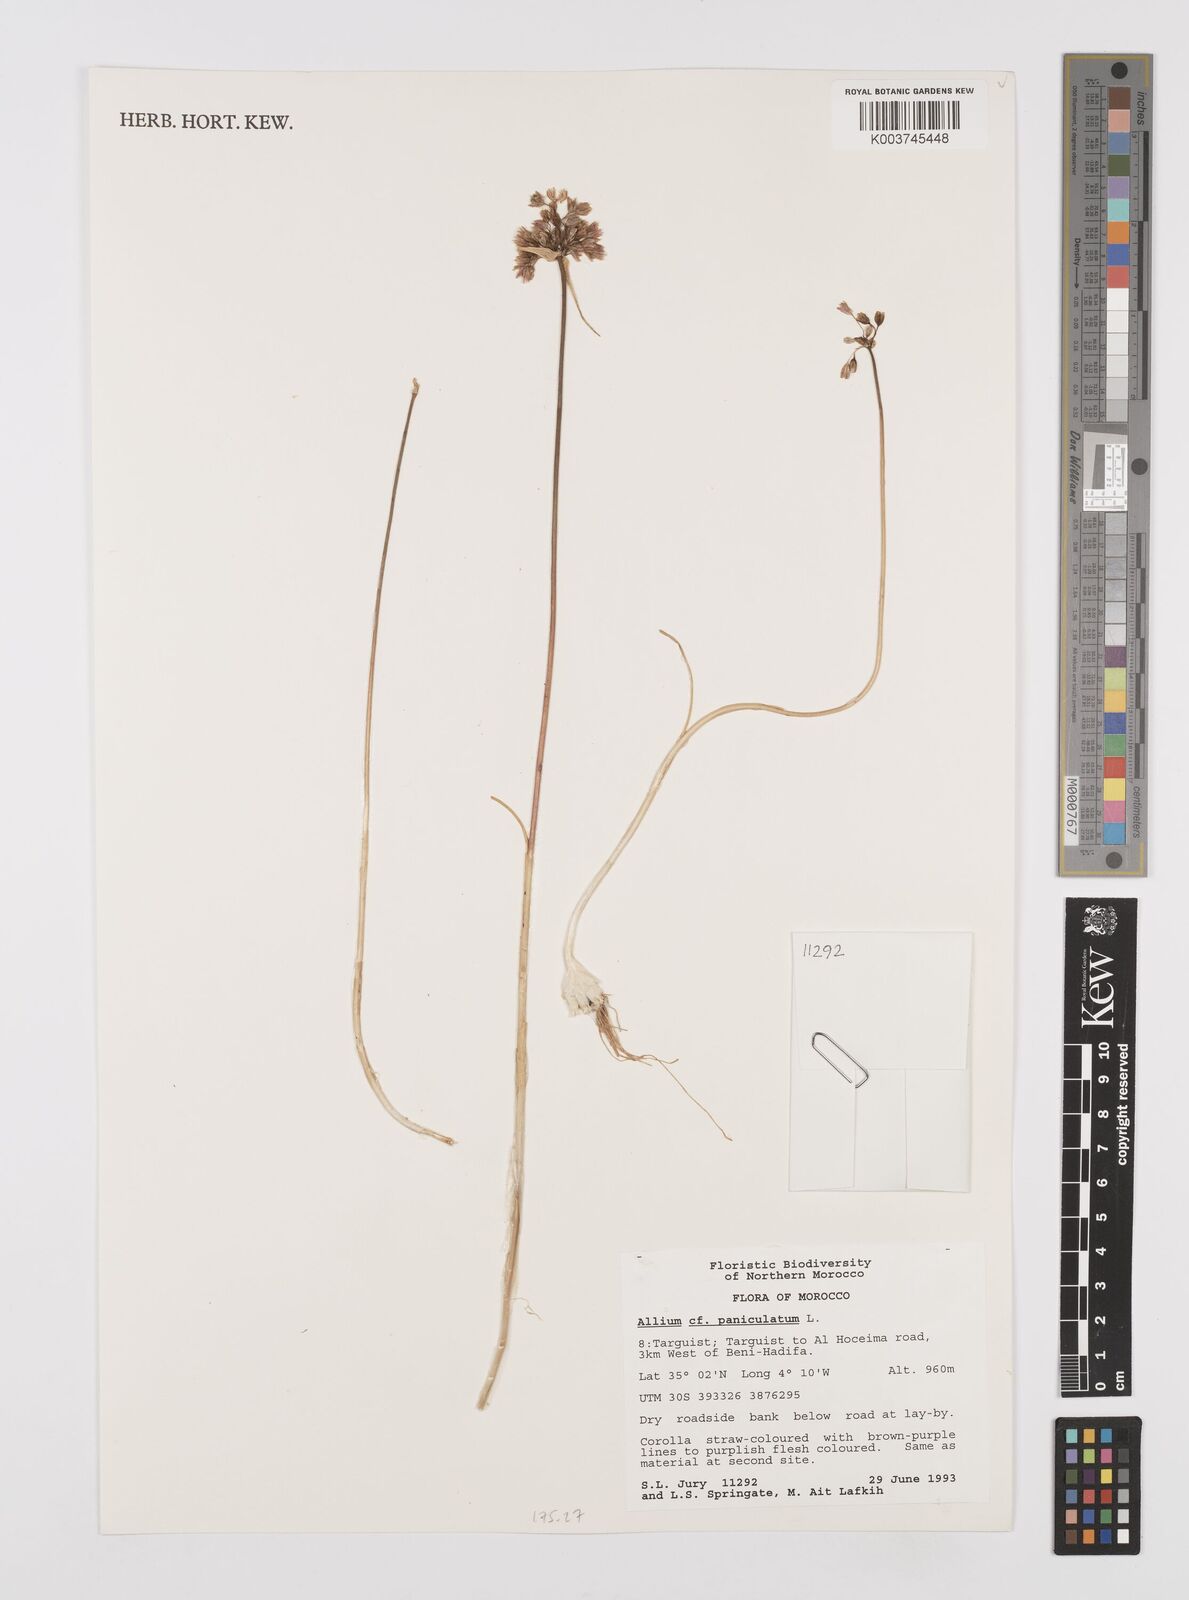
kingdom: Plantae
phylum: Tracheophyta
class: Liliopsida
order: Asparagales
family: Amaryllidaceae
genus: Allium
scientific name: Allium paniculatum
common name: Pale garlic
